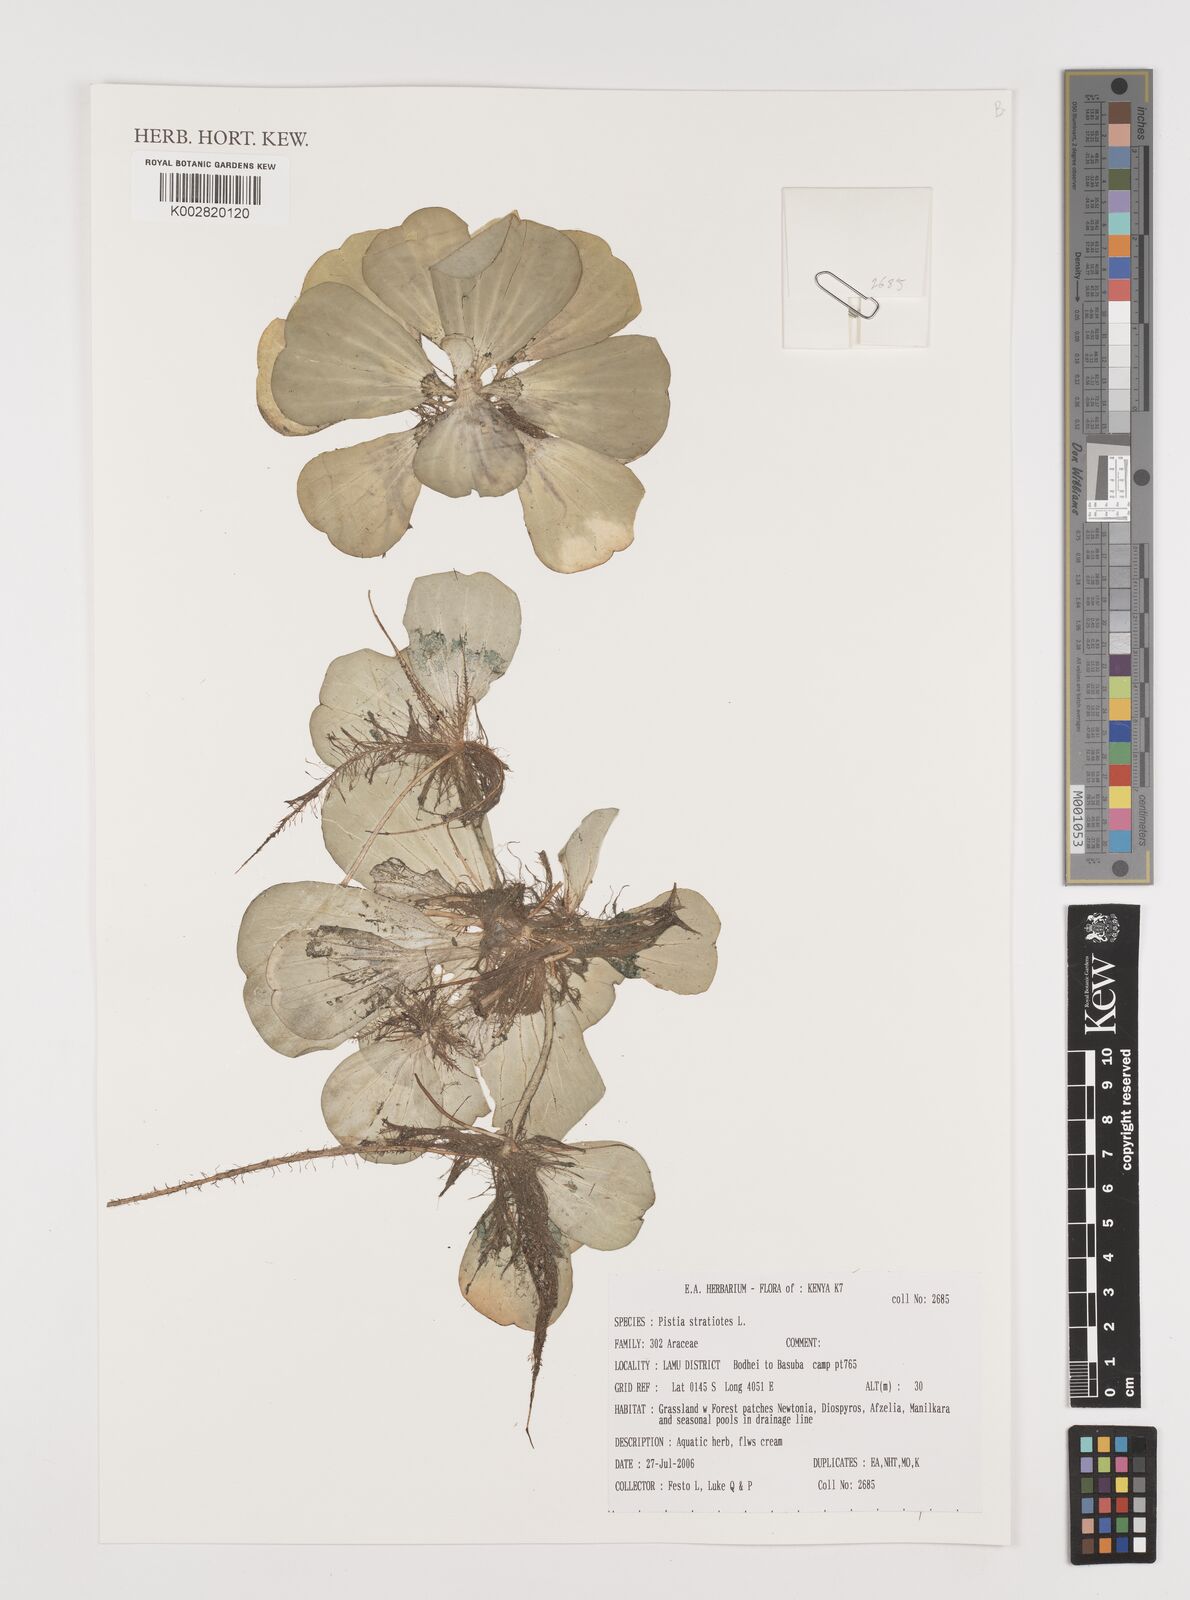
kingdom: Plantae
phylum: Tracheophyta
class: Liliopsida
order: Alismatales
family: Araceae
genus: Pistia
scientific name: Pistia stratiotes
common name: Water lettuce
